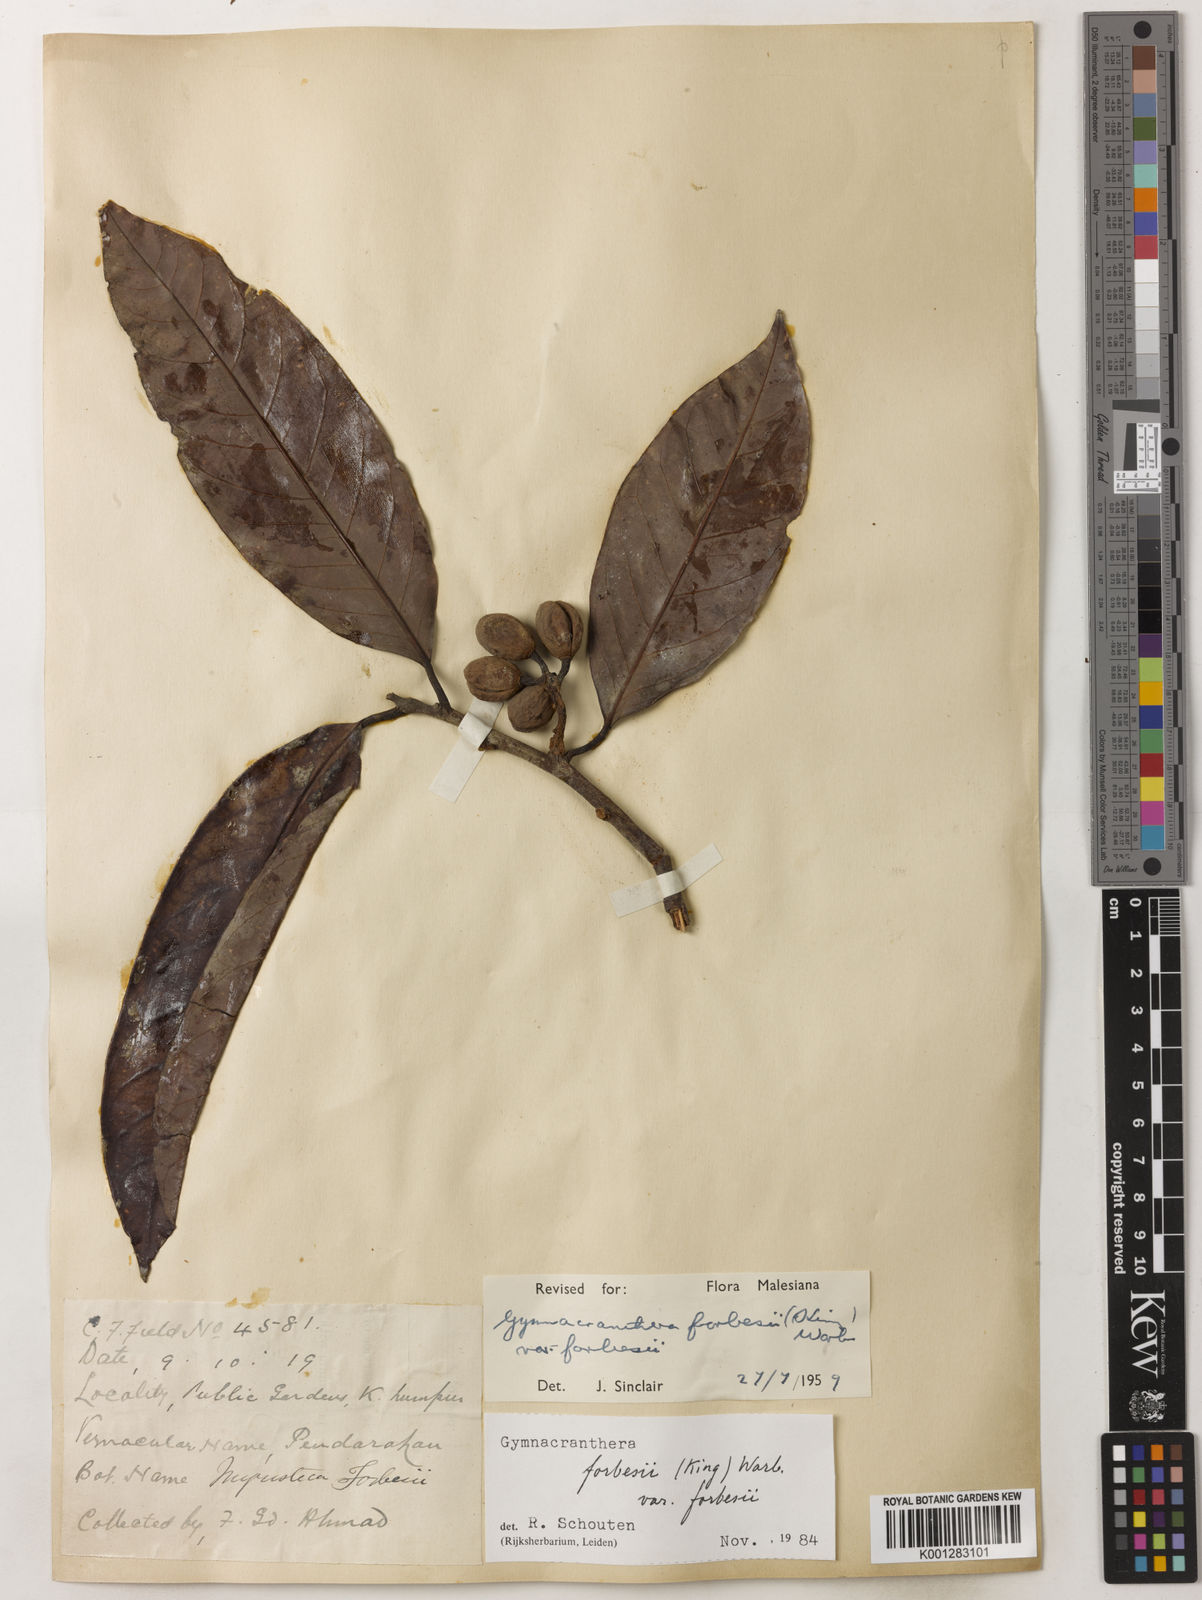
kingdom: Plantae
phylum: Tracheophyta
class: Magnoliopsida
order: Magnoliales
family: Myristicaceae
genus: Gymnacranthera
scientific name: Gymnacranthera forbesii
